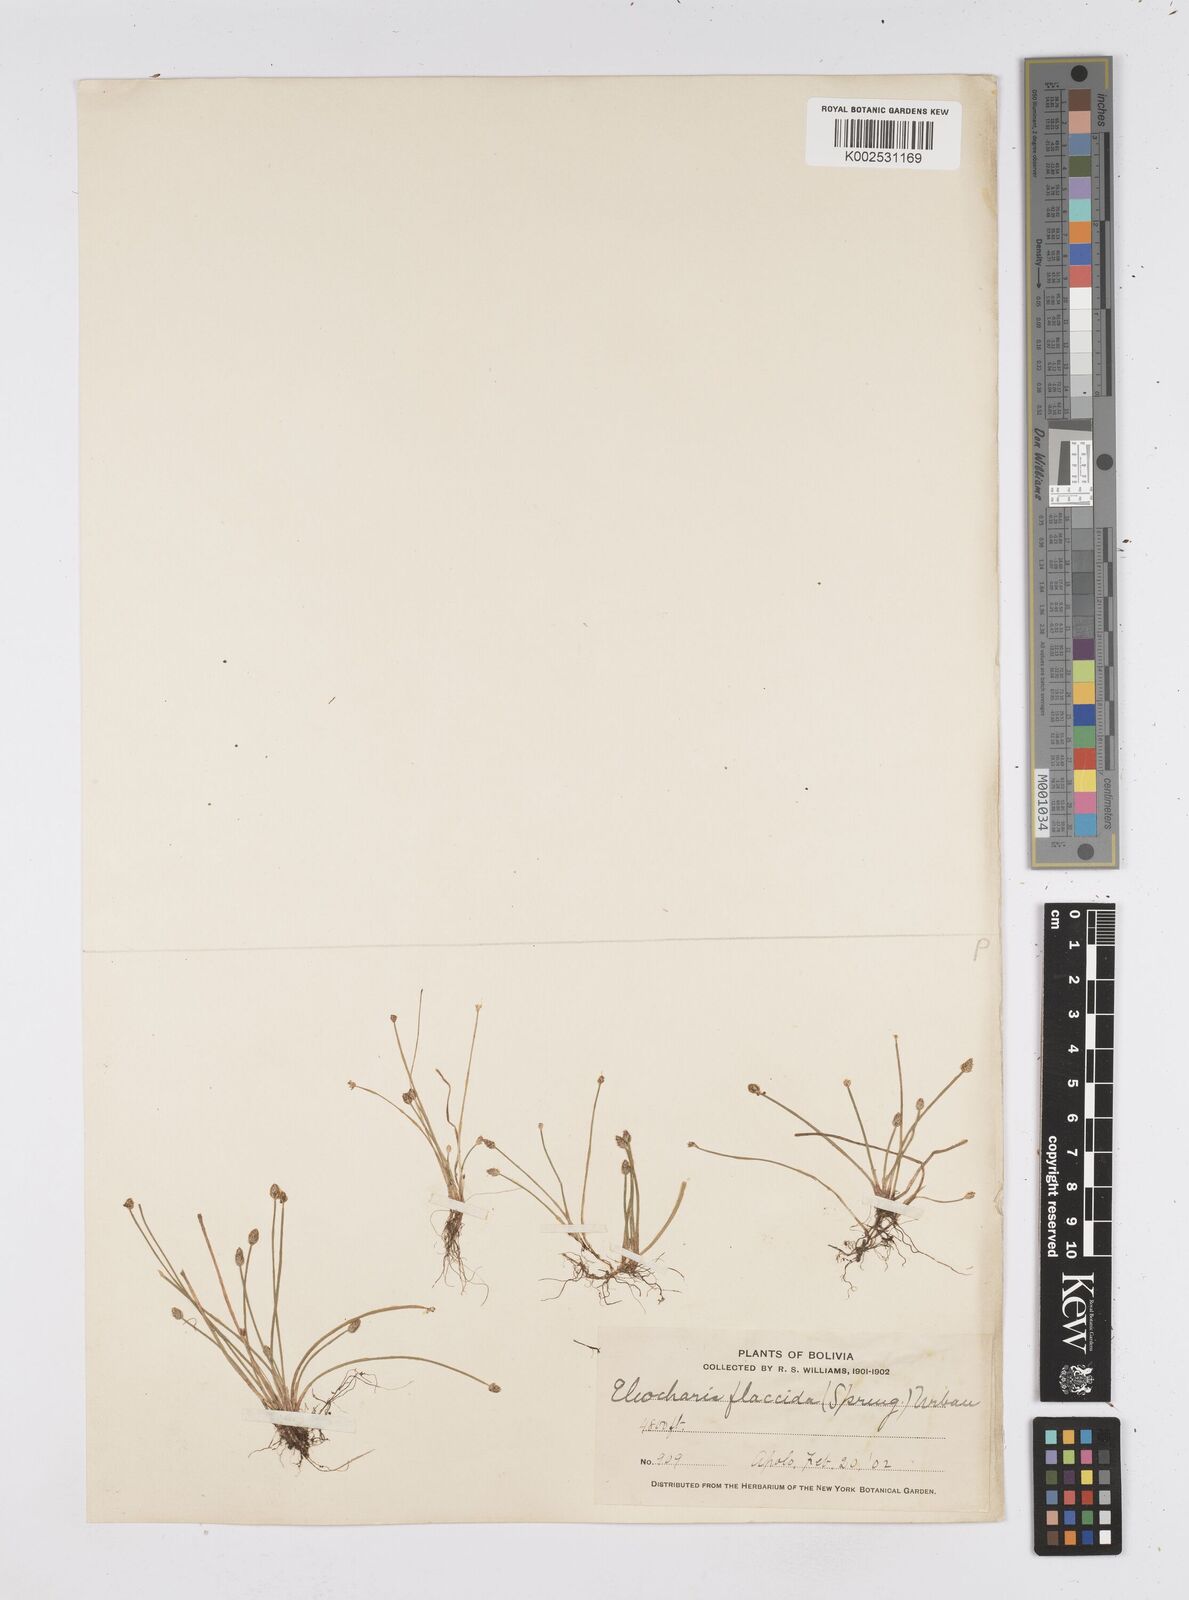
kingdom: Plantae
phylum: Tracheophyta
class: Liliopsida
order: Poales
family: Cyperaceae
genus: Eleocharis
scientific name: Eleocharis flavescens
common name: Yellow spikerush
